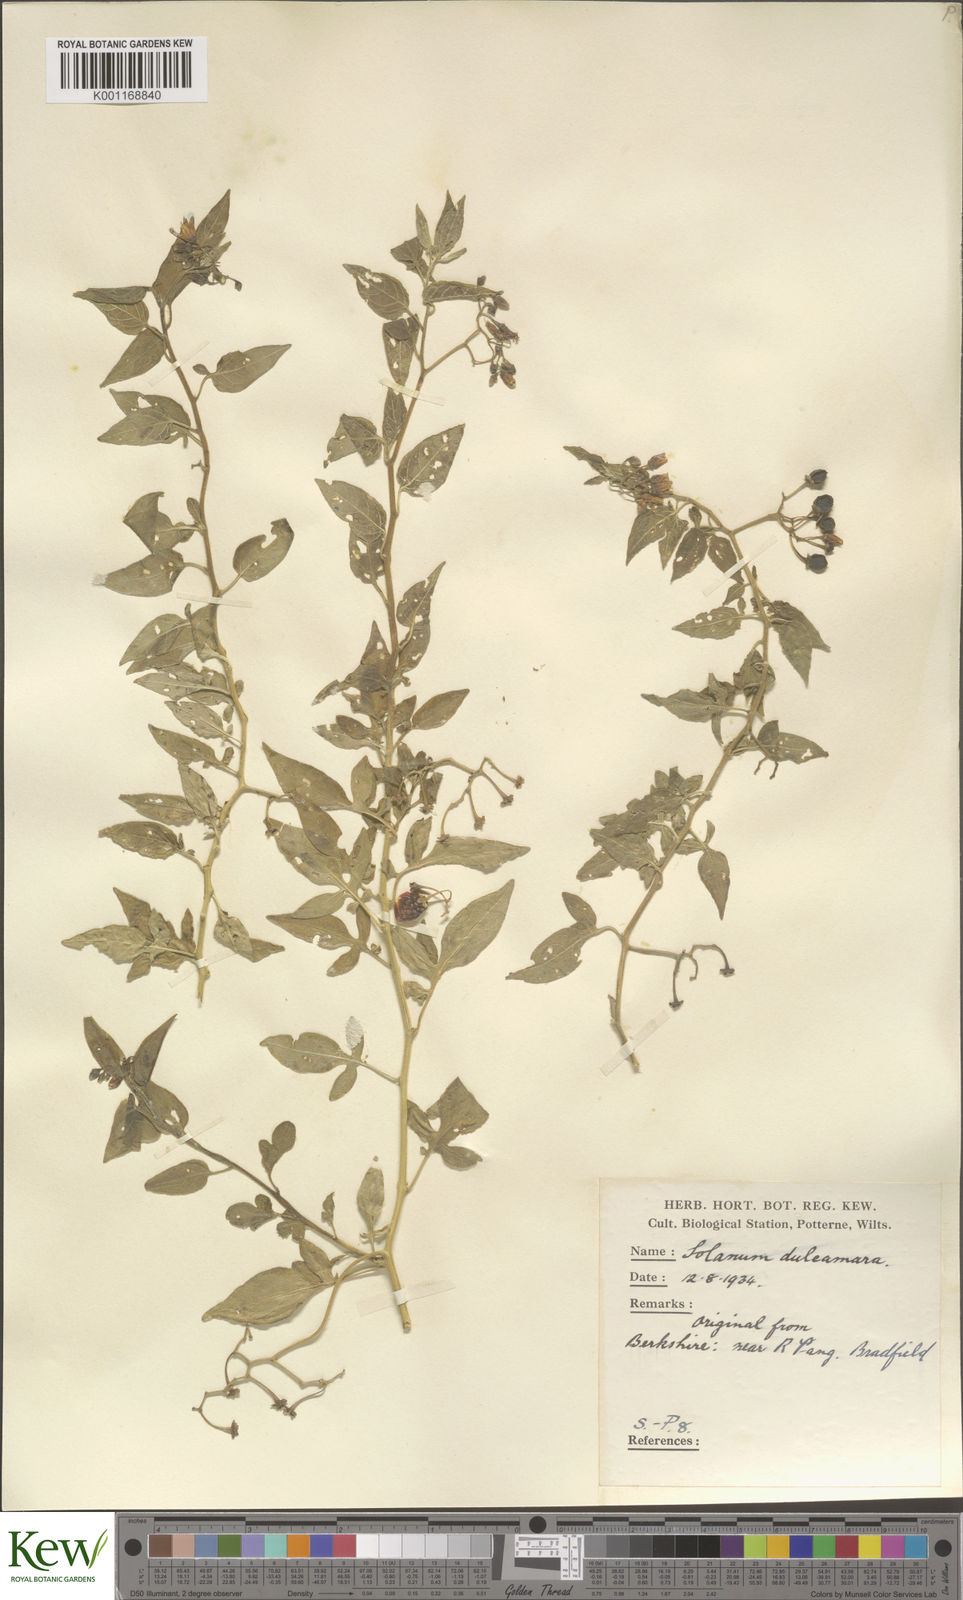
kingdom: Plantae
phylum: Tracheophyta
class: Magnoliopsida
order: Solanales
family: Solanaceae
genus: Solanum
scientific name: Solanum dulcamara
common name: Climbing nightshade
